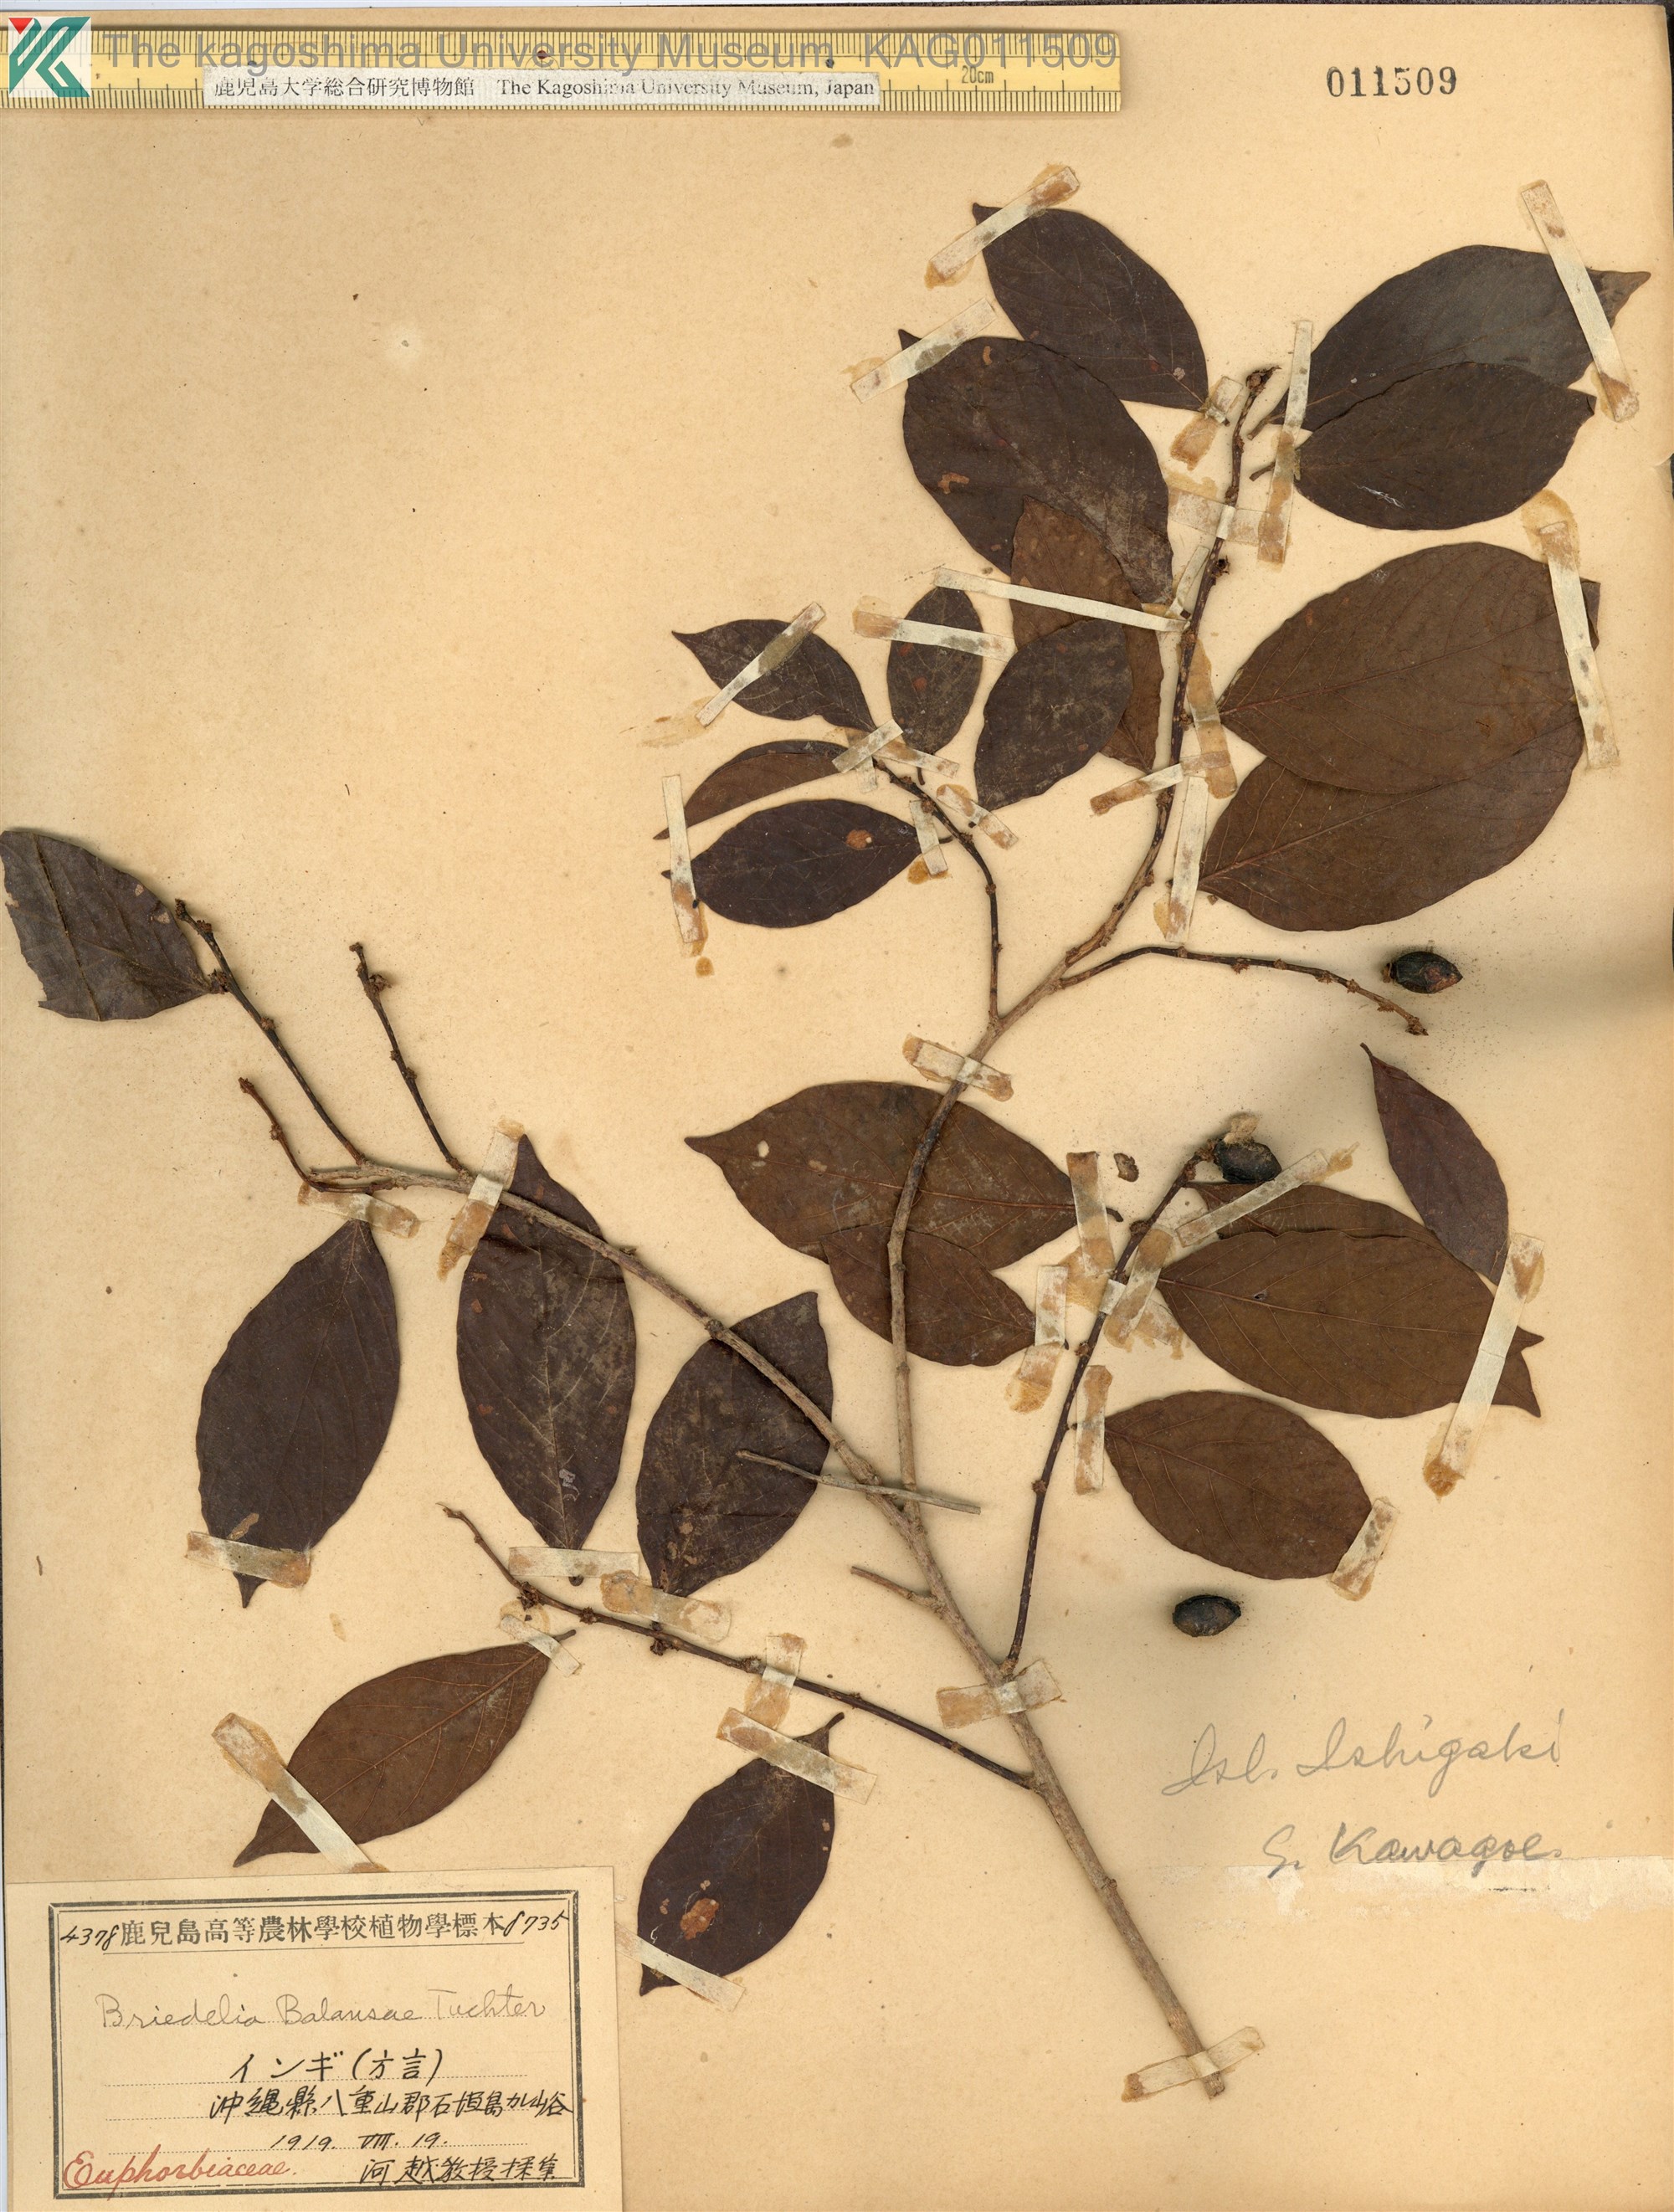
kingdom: Plantae
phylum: Tracheophyta
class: Magnoliopsida
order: Malpighiales
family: Phyllanthaceae
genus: Bridelia
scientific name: Bridelia balansae
